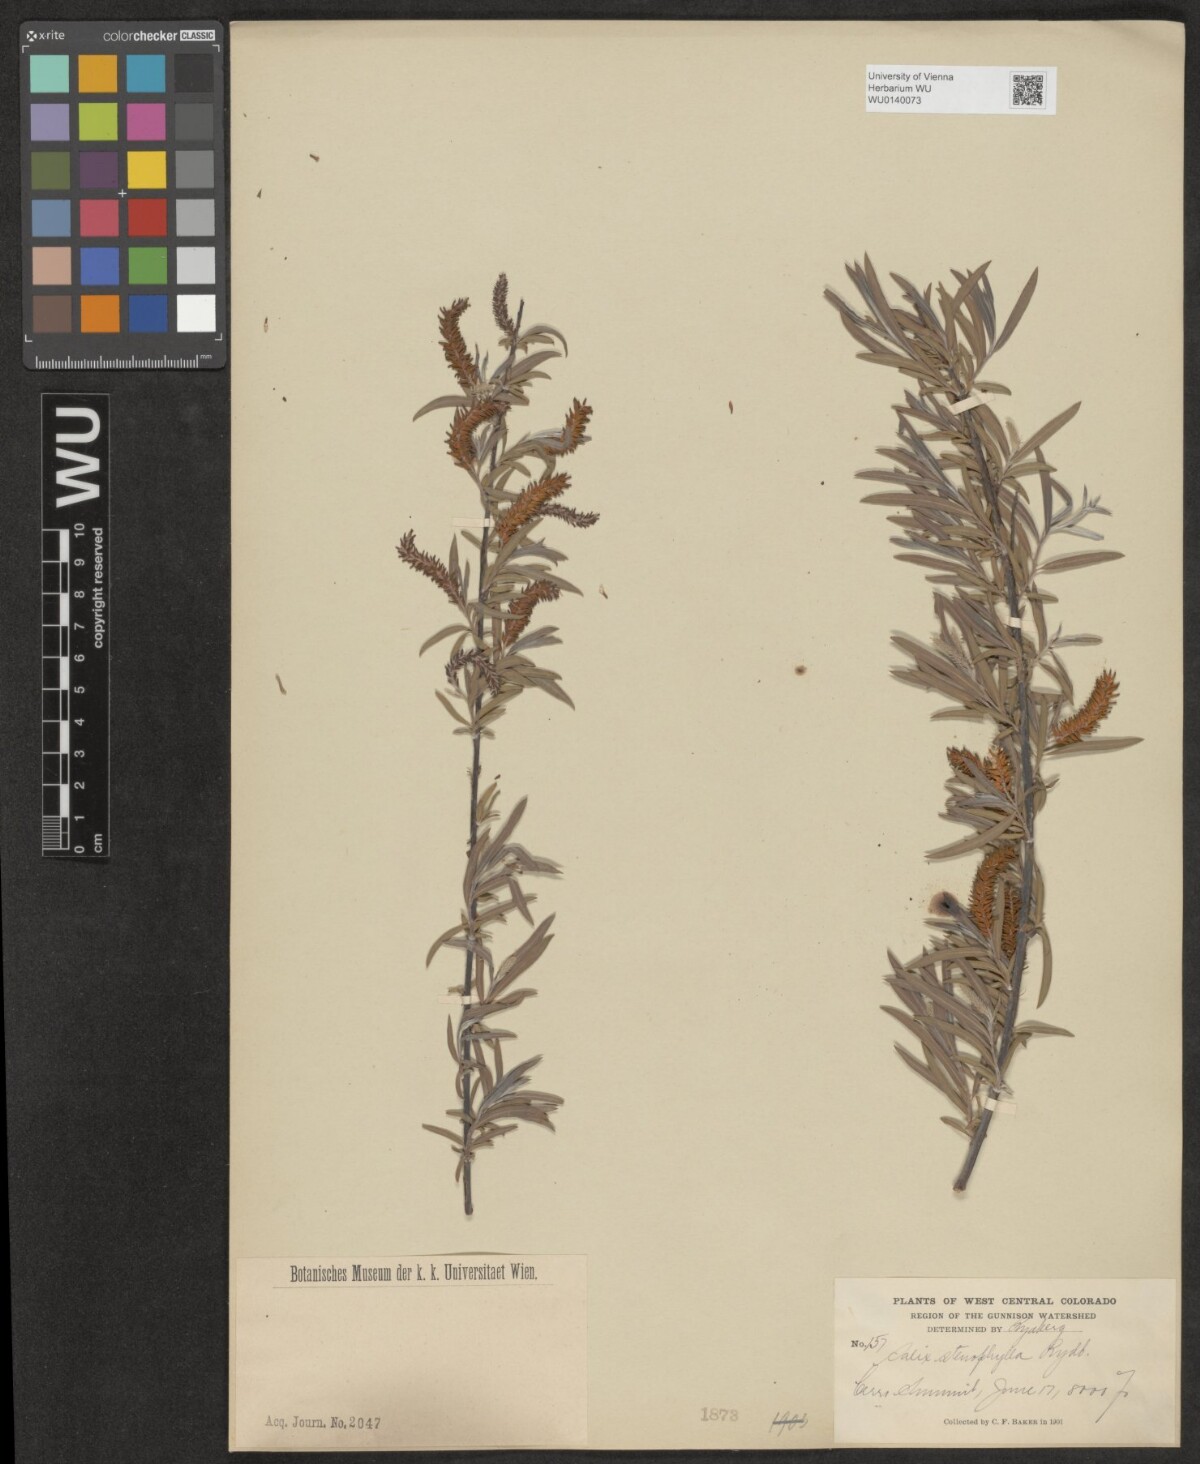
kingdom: Plantae
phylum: Tracheophyta
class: Magnoliopsida
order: Malpighiales
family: Salicaceae
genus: Salix
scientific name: Salix sphenophylla
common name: Wedge-leaved willow
